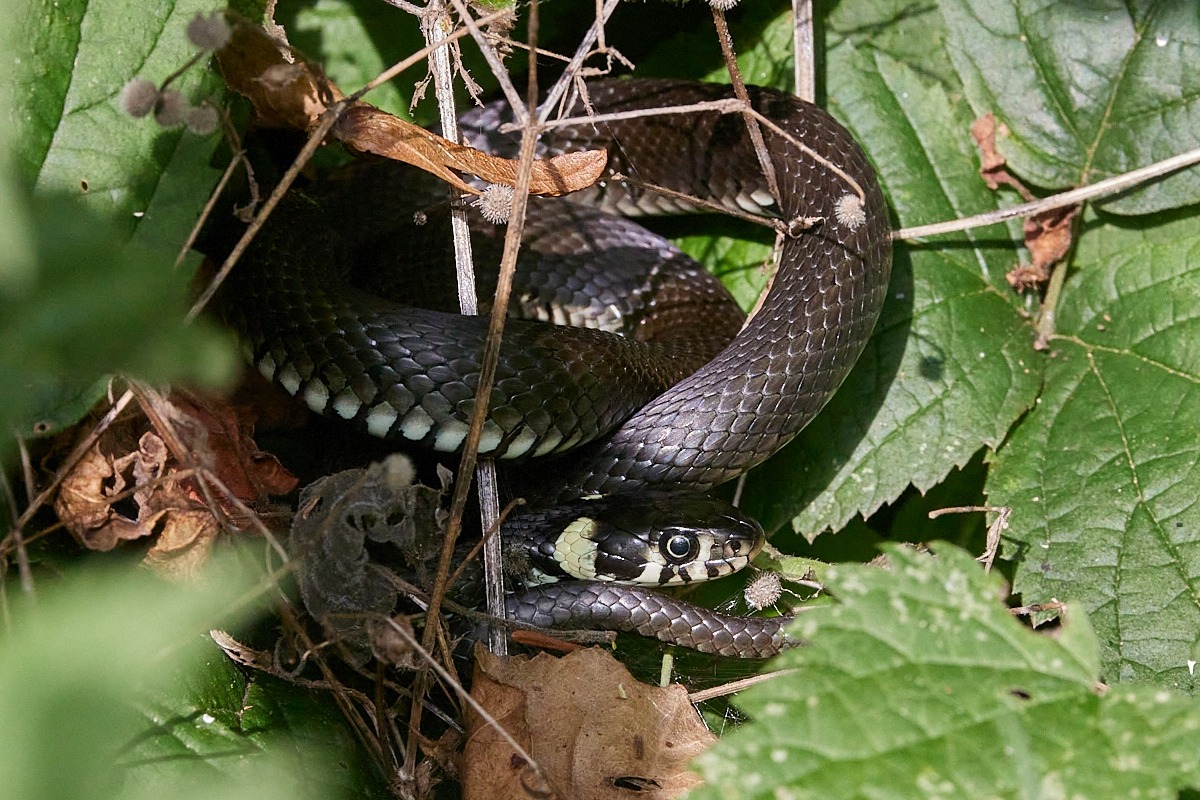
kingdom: Animalia
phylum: Chordata
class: Squamata
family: Colubridae
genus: Natrix
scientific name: Natrix natrix
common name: Snog
